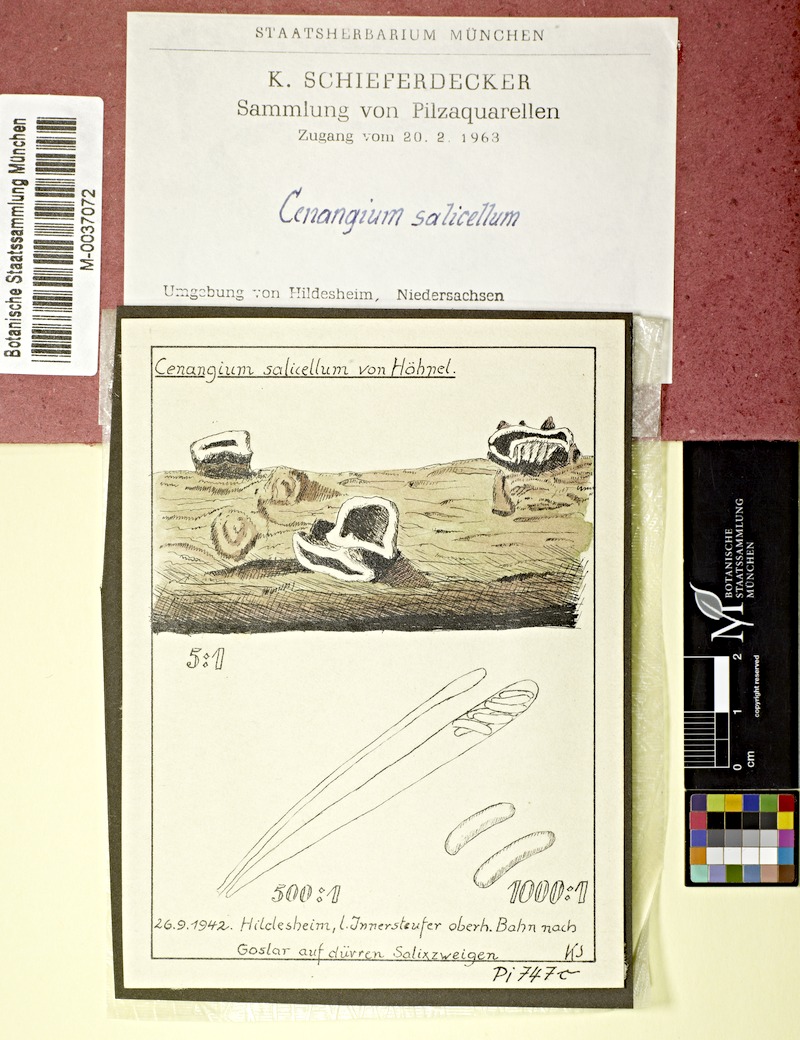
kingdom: Fungi
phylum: Ascomycota
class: Leotiomycetes
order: Helotiales
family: Cenangiaceae
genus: Encoelia
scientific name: Encoelia salicella
